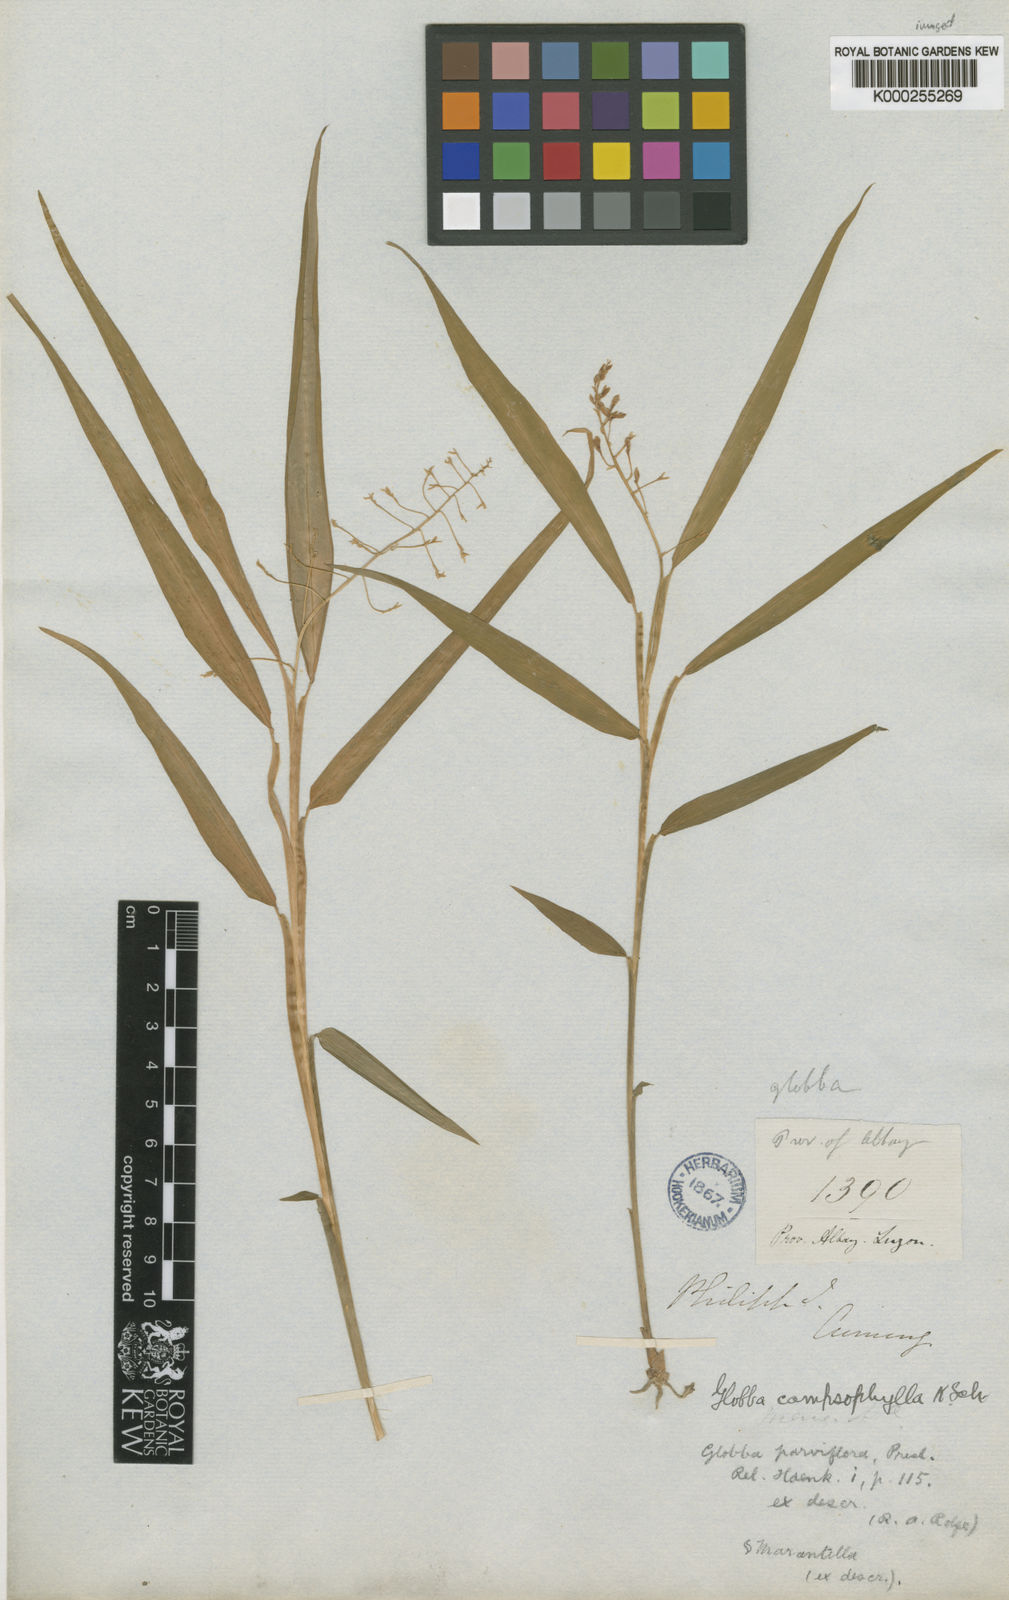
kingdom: Plantae
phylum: Tracheophyta
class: Liliopsida
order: Zingiberales
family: Zingiberaceae
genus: Globba
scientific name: Globba campsophylla
